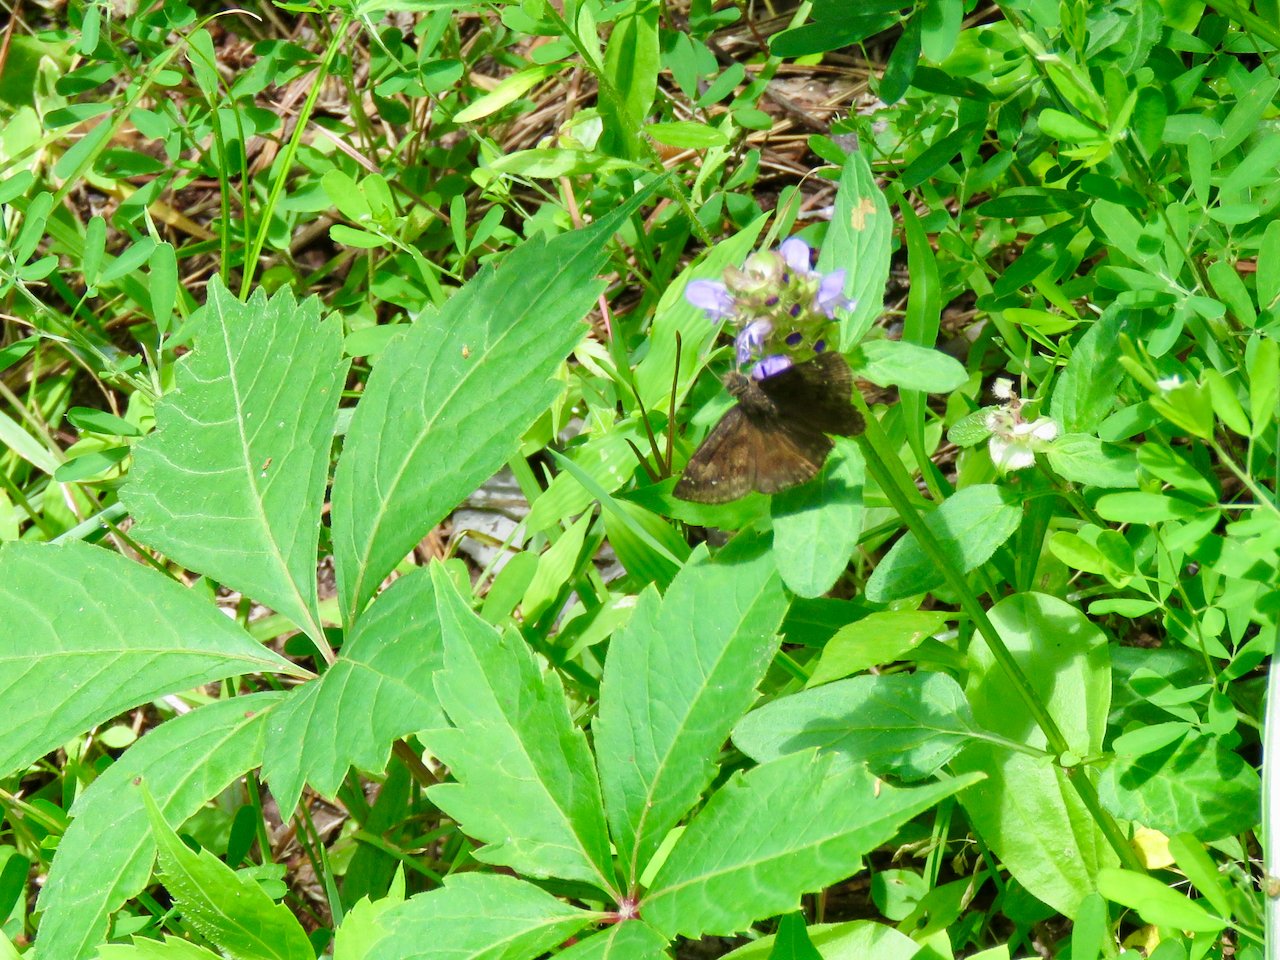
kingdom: Animalia
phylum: Arthropoda
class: Insecta
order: Lepidoptera
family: Hesperiidae
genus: Gesta
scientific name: Gesta
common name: Wild Indigo Duskywing
